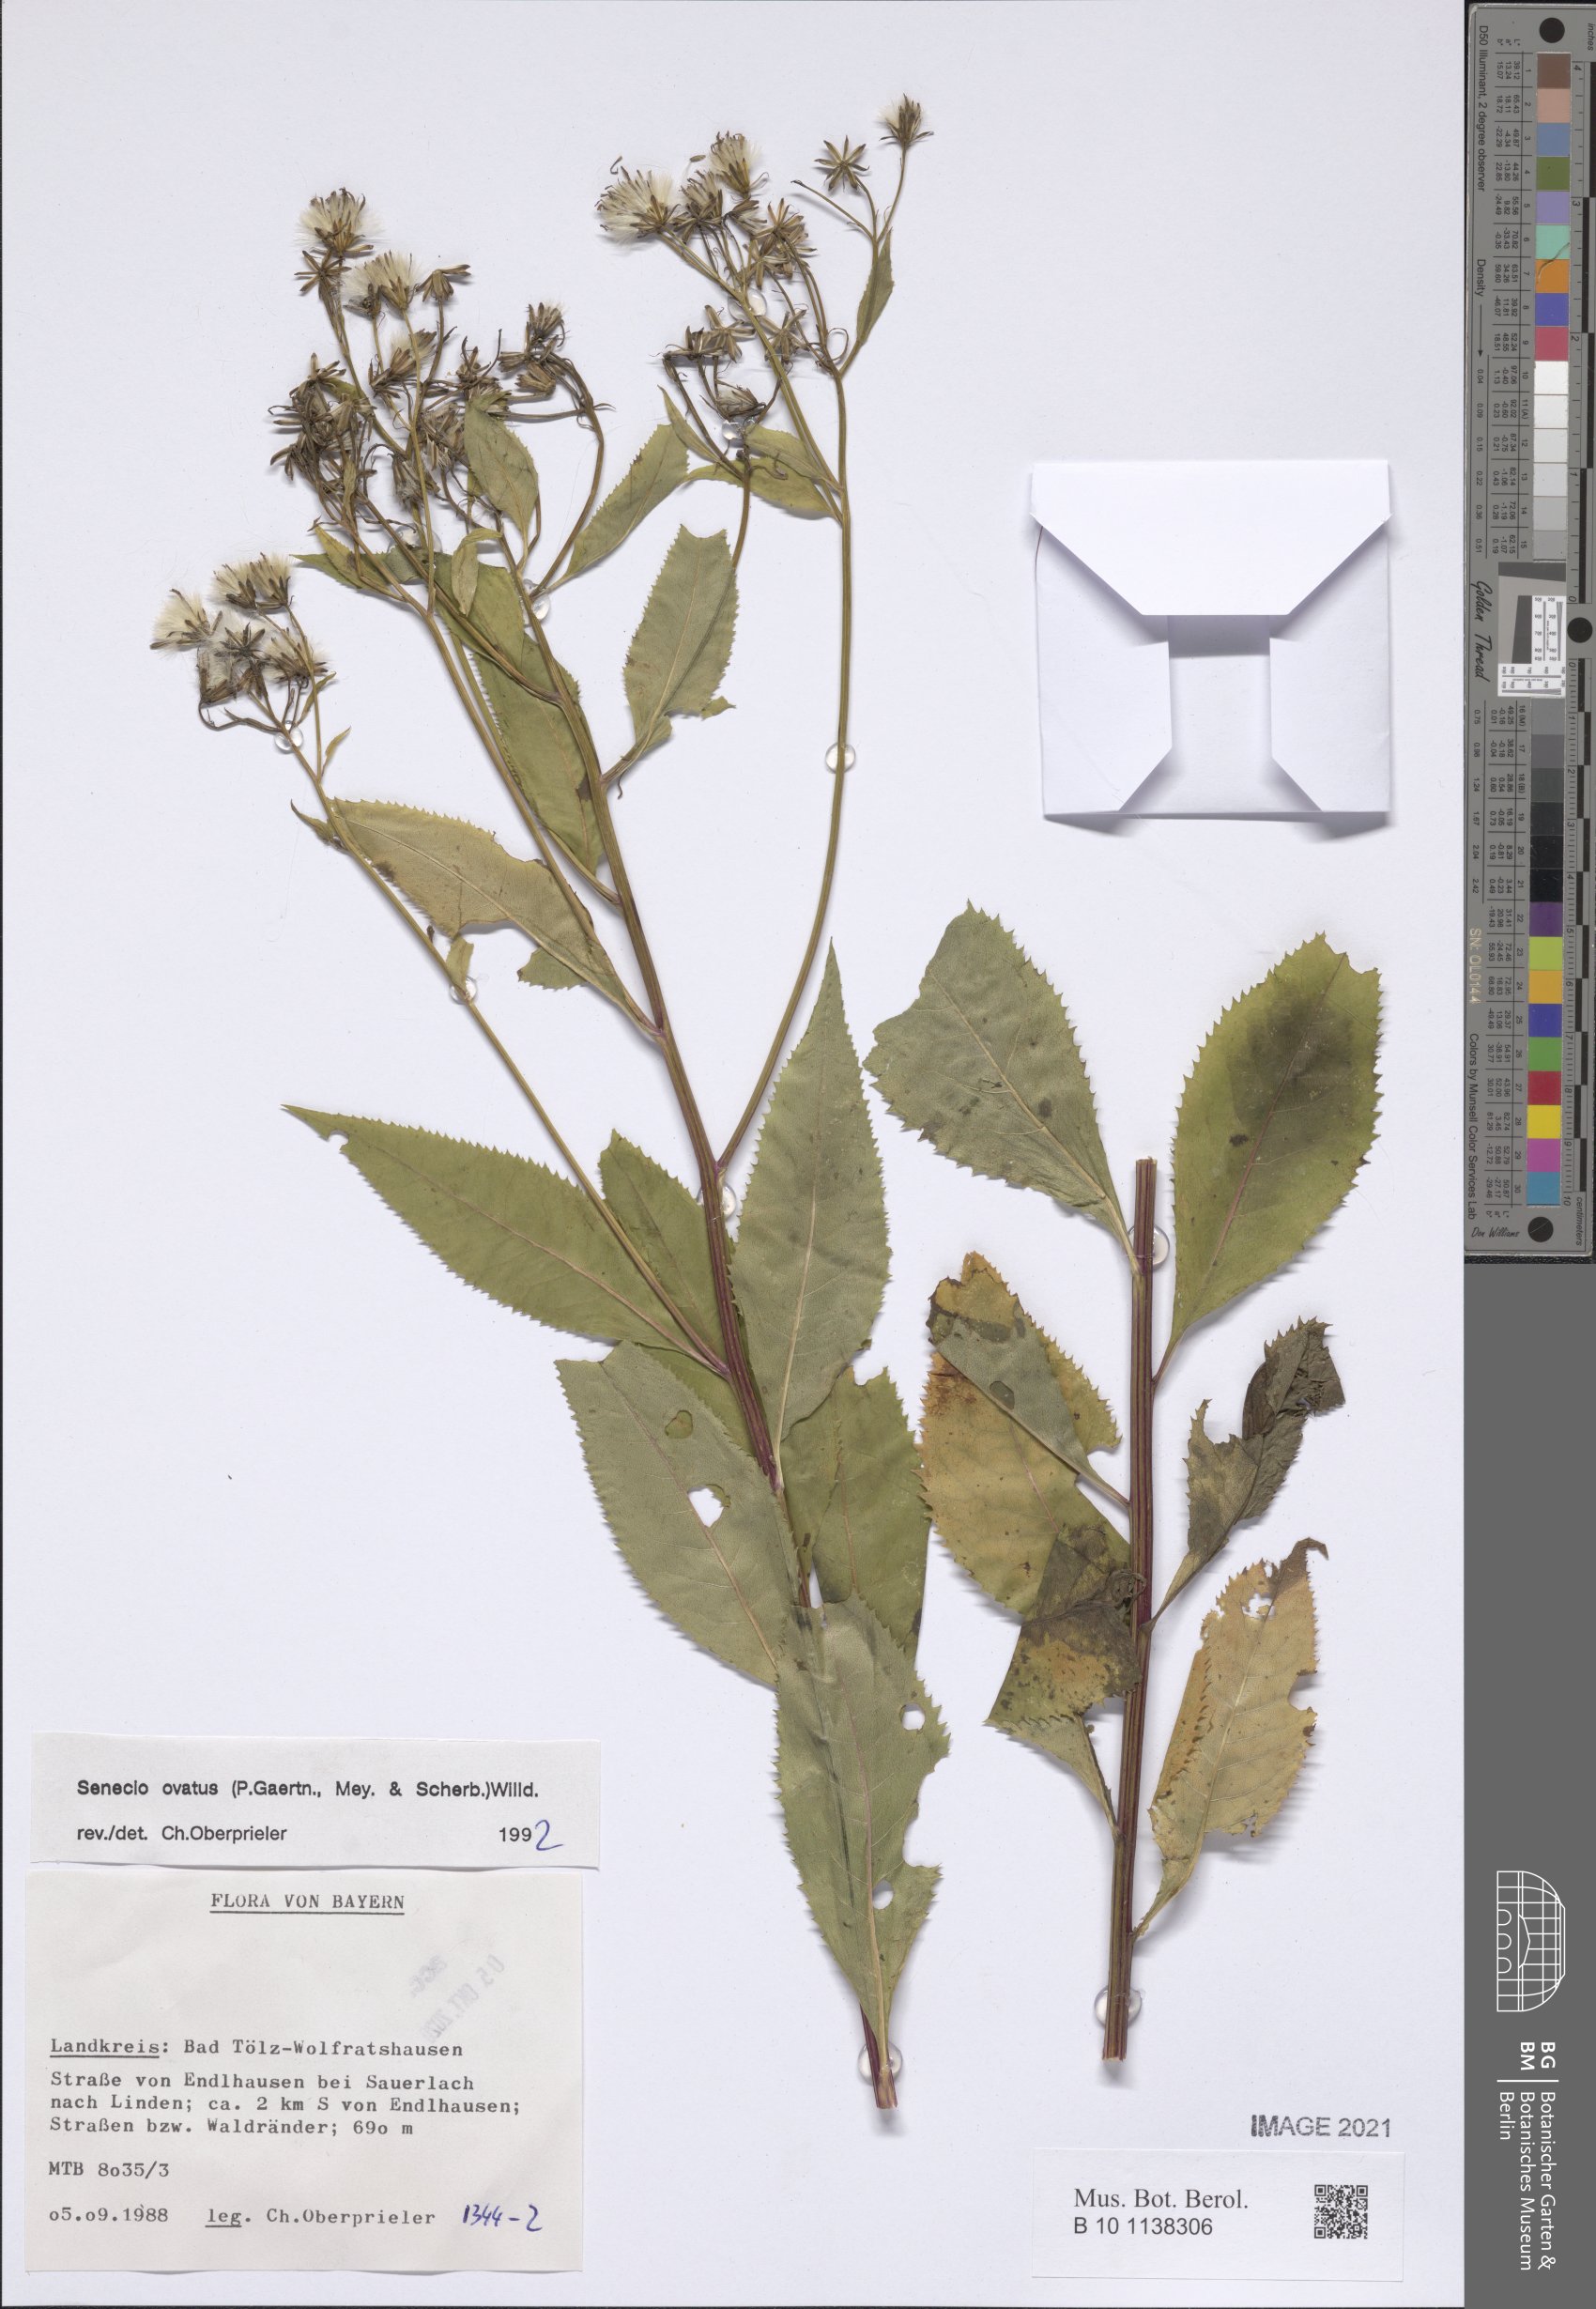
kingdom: Plantae
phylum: Tracheophyta
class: Magnoliopsida
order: Asterales
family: Asteraceae
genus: Senecio
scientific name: Senecio ovatus
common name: Wood ragwort
